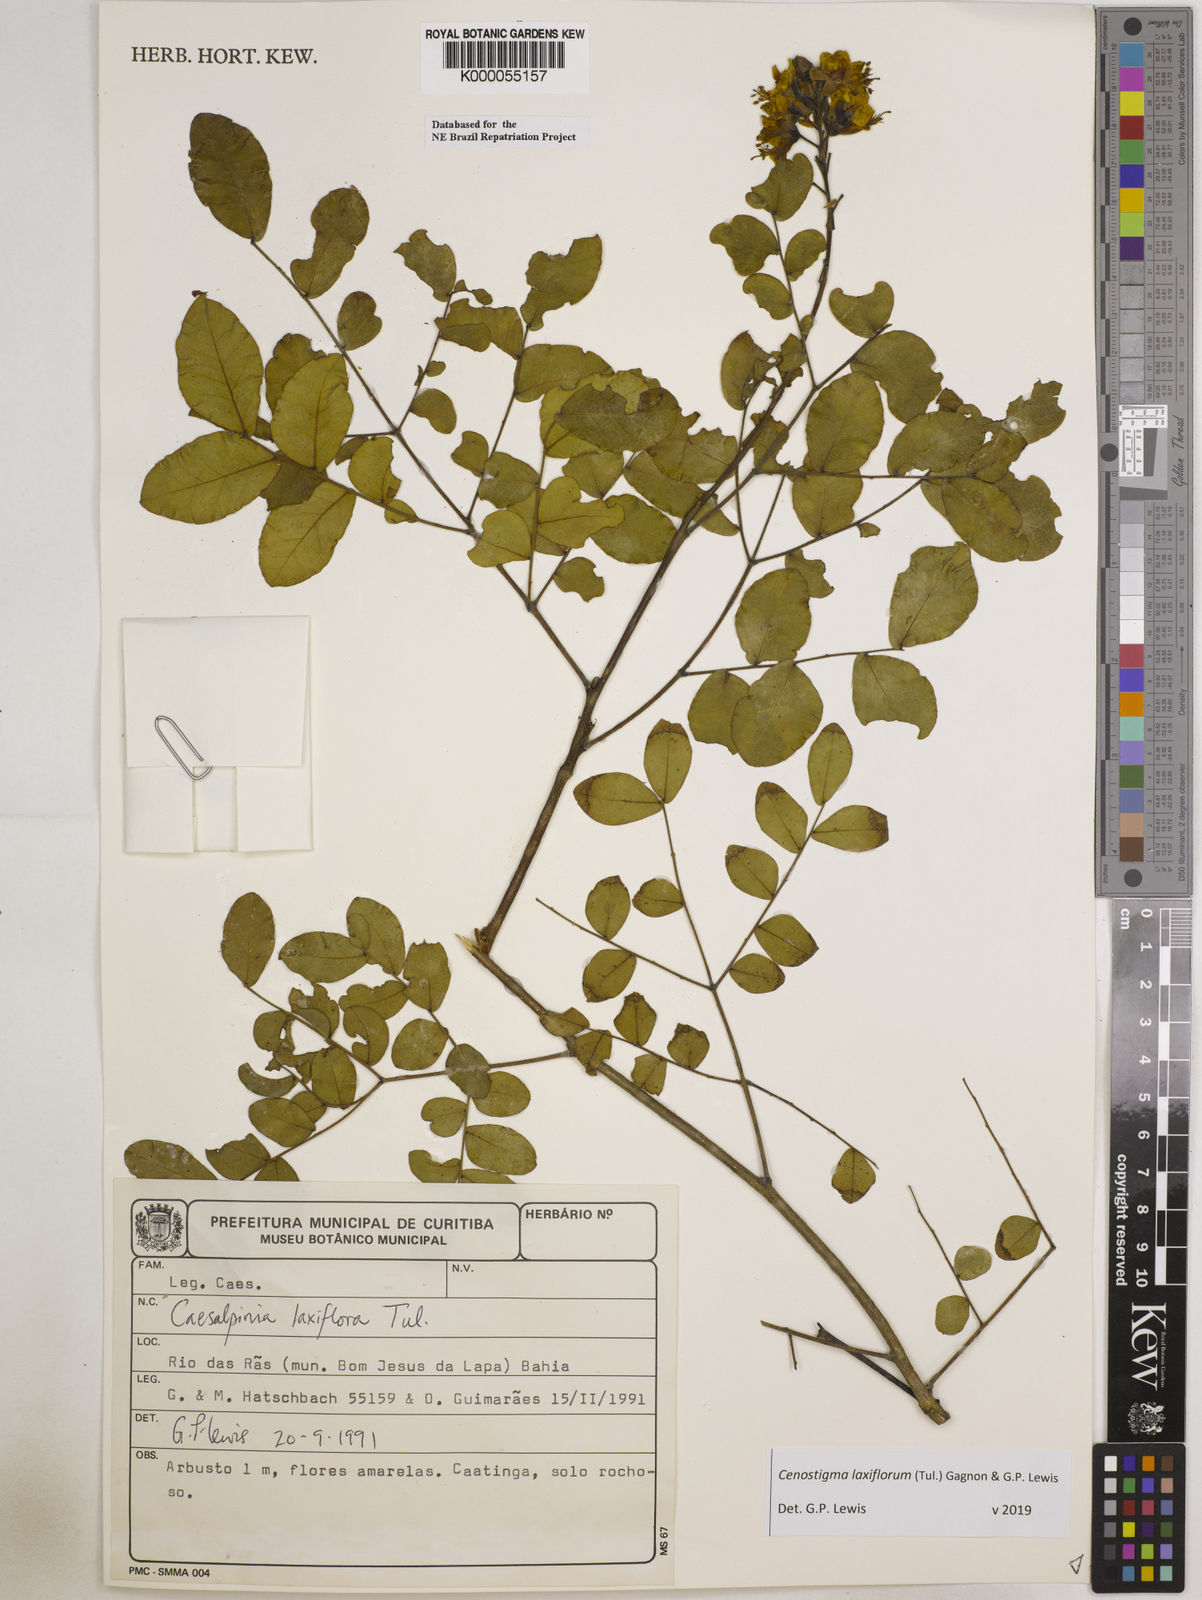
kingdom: Plantae
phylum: Tracheophyta
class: Magnoliopsida
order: Fabales
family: Fabaceae
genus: Cenostigma
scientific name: Cenostigma laxiflorum
